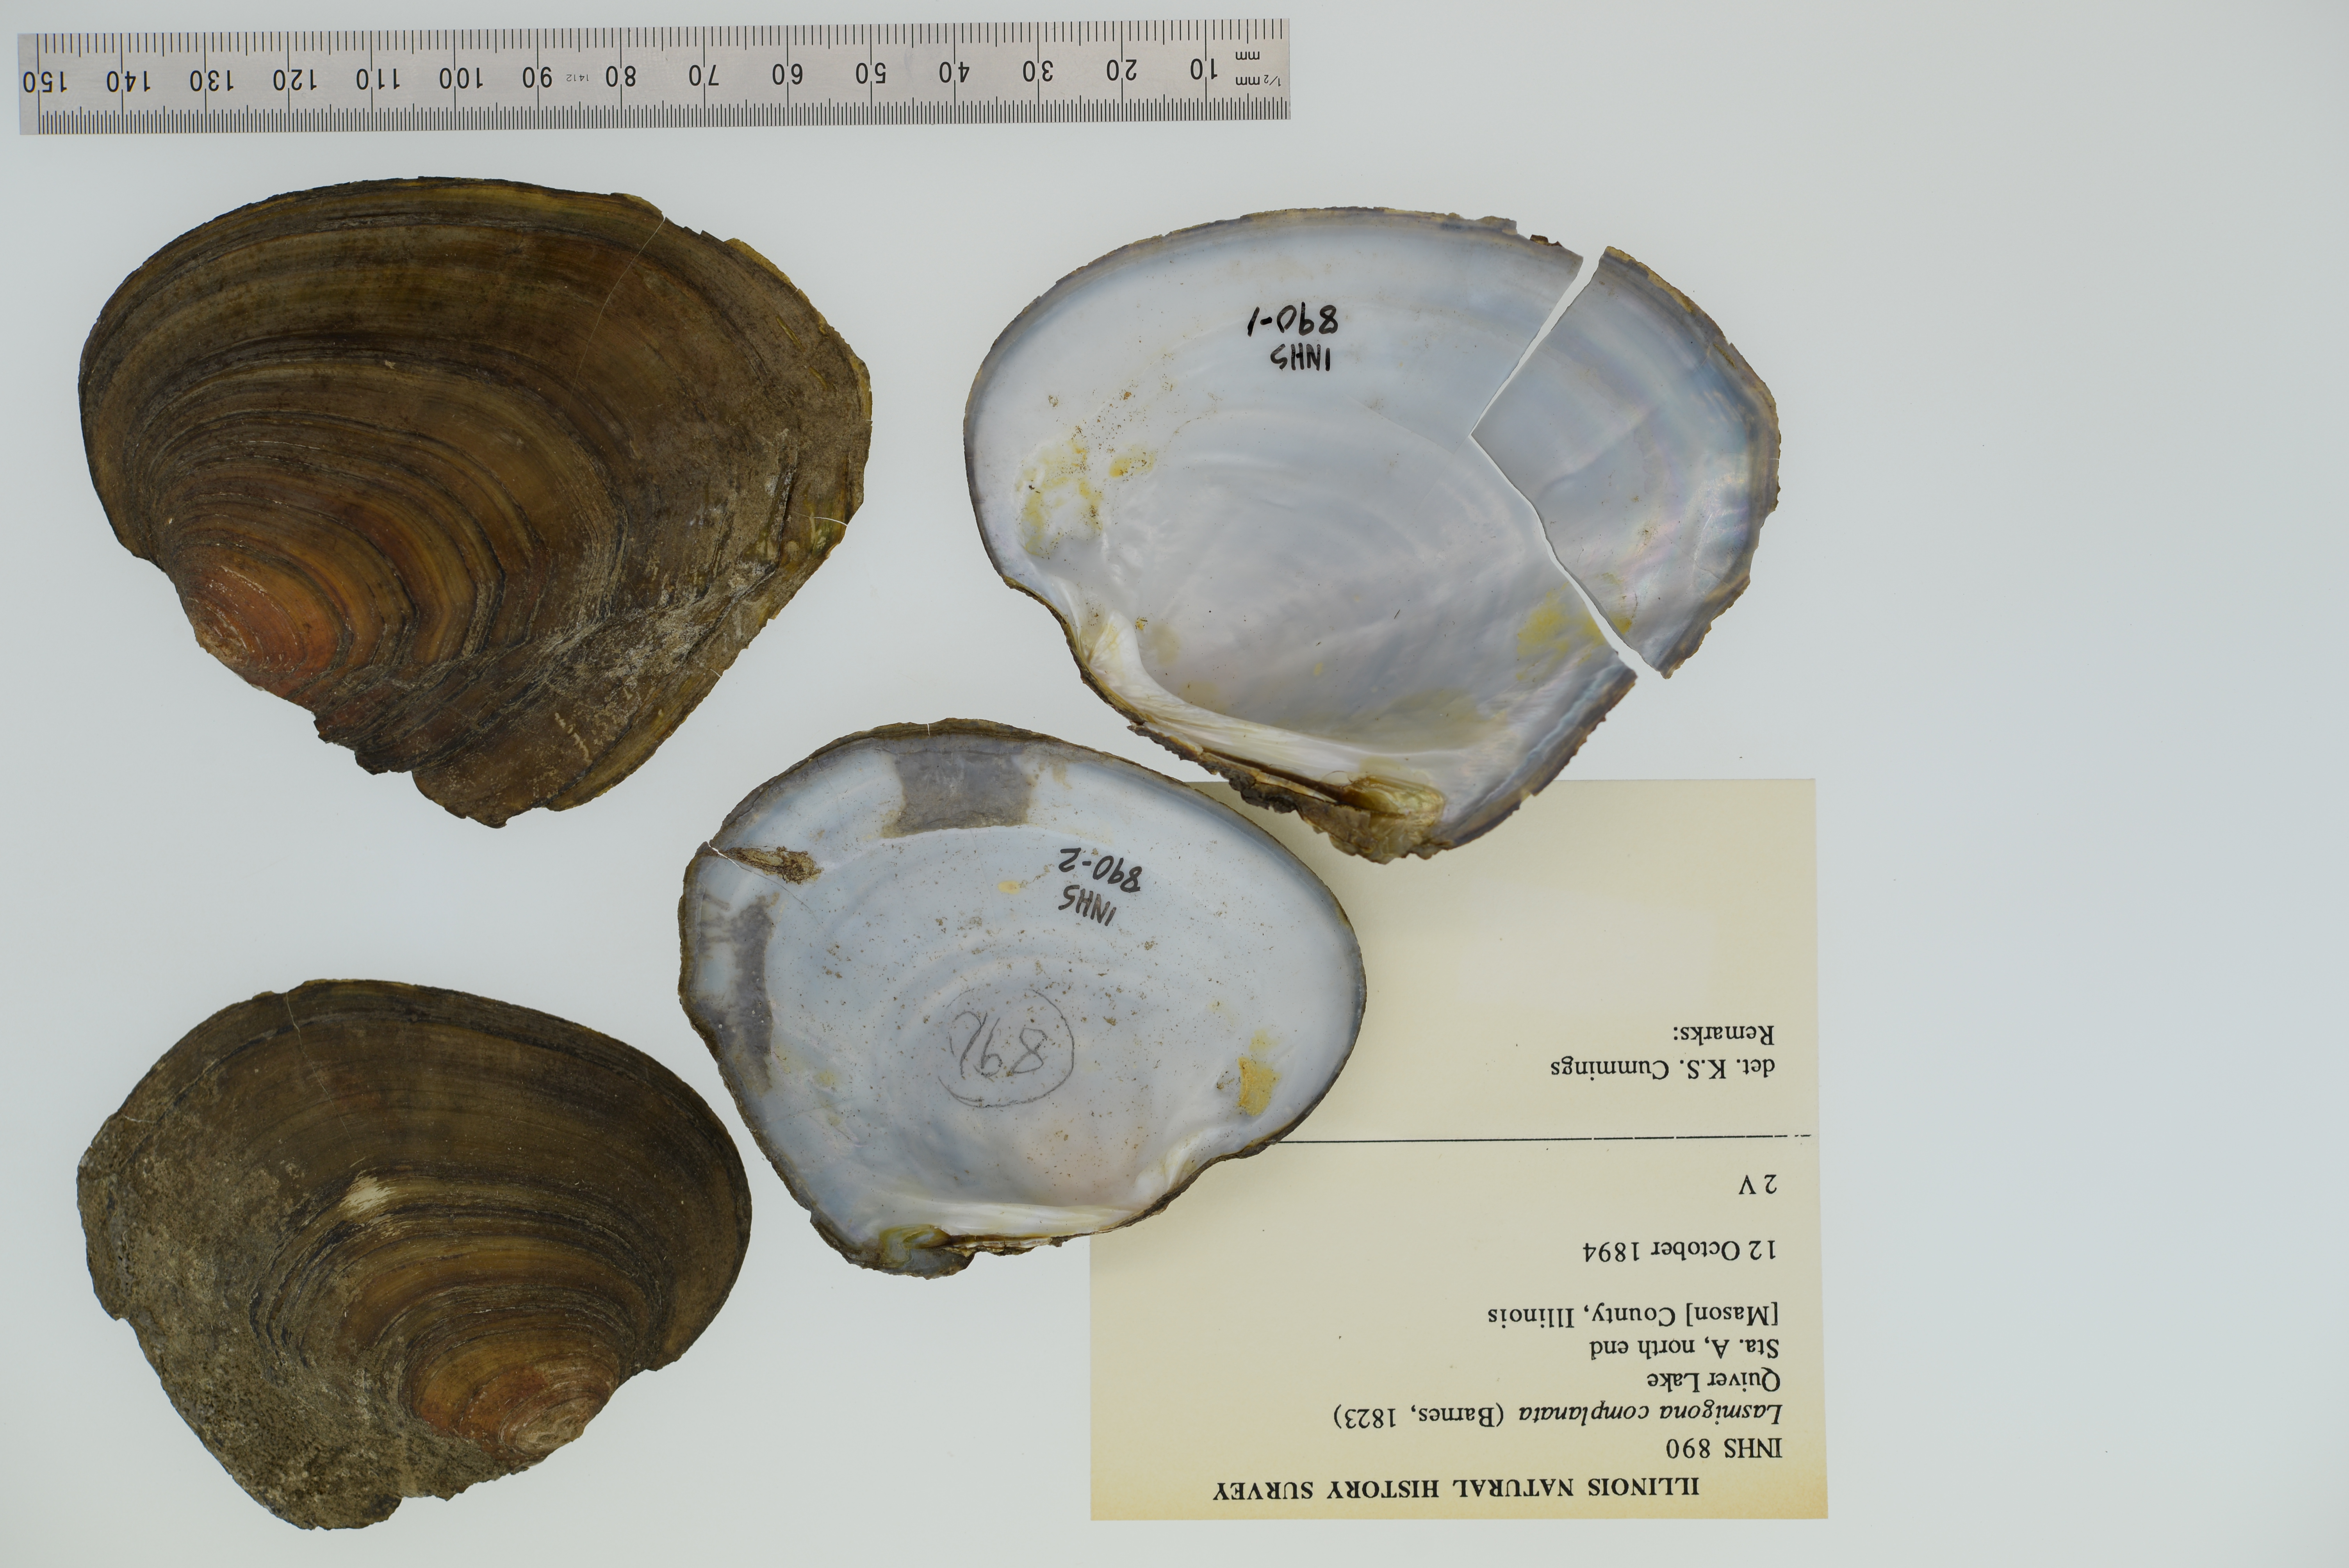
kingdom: Animalia
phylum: Mollusca
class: Bivalvia
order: Unionida
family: Unionidae
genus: Lasmigona
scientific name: Lasmigona complanata
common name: White heelsplitter
